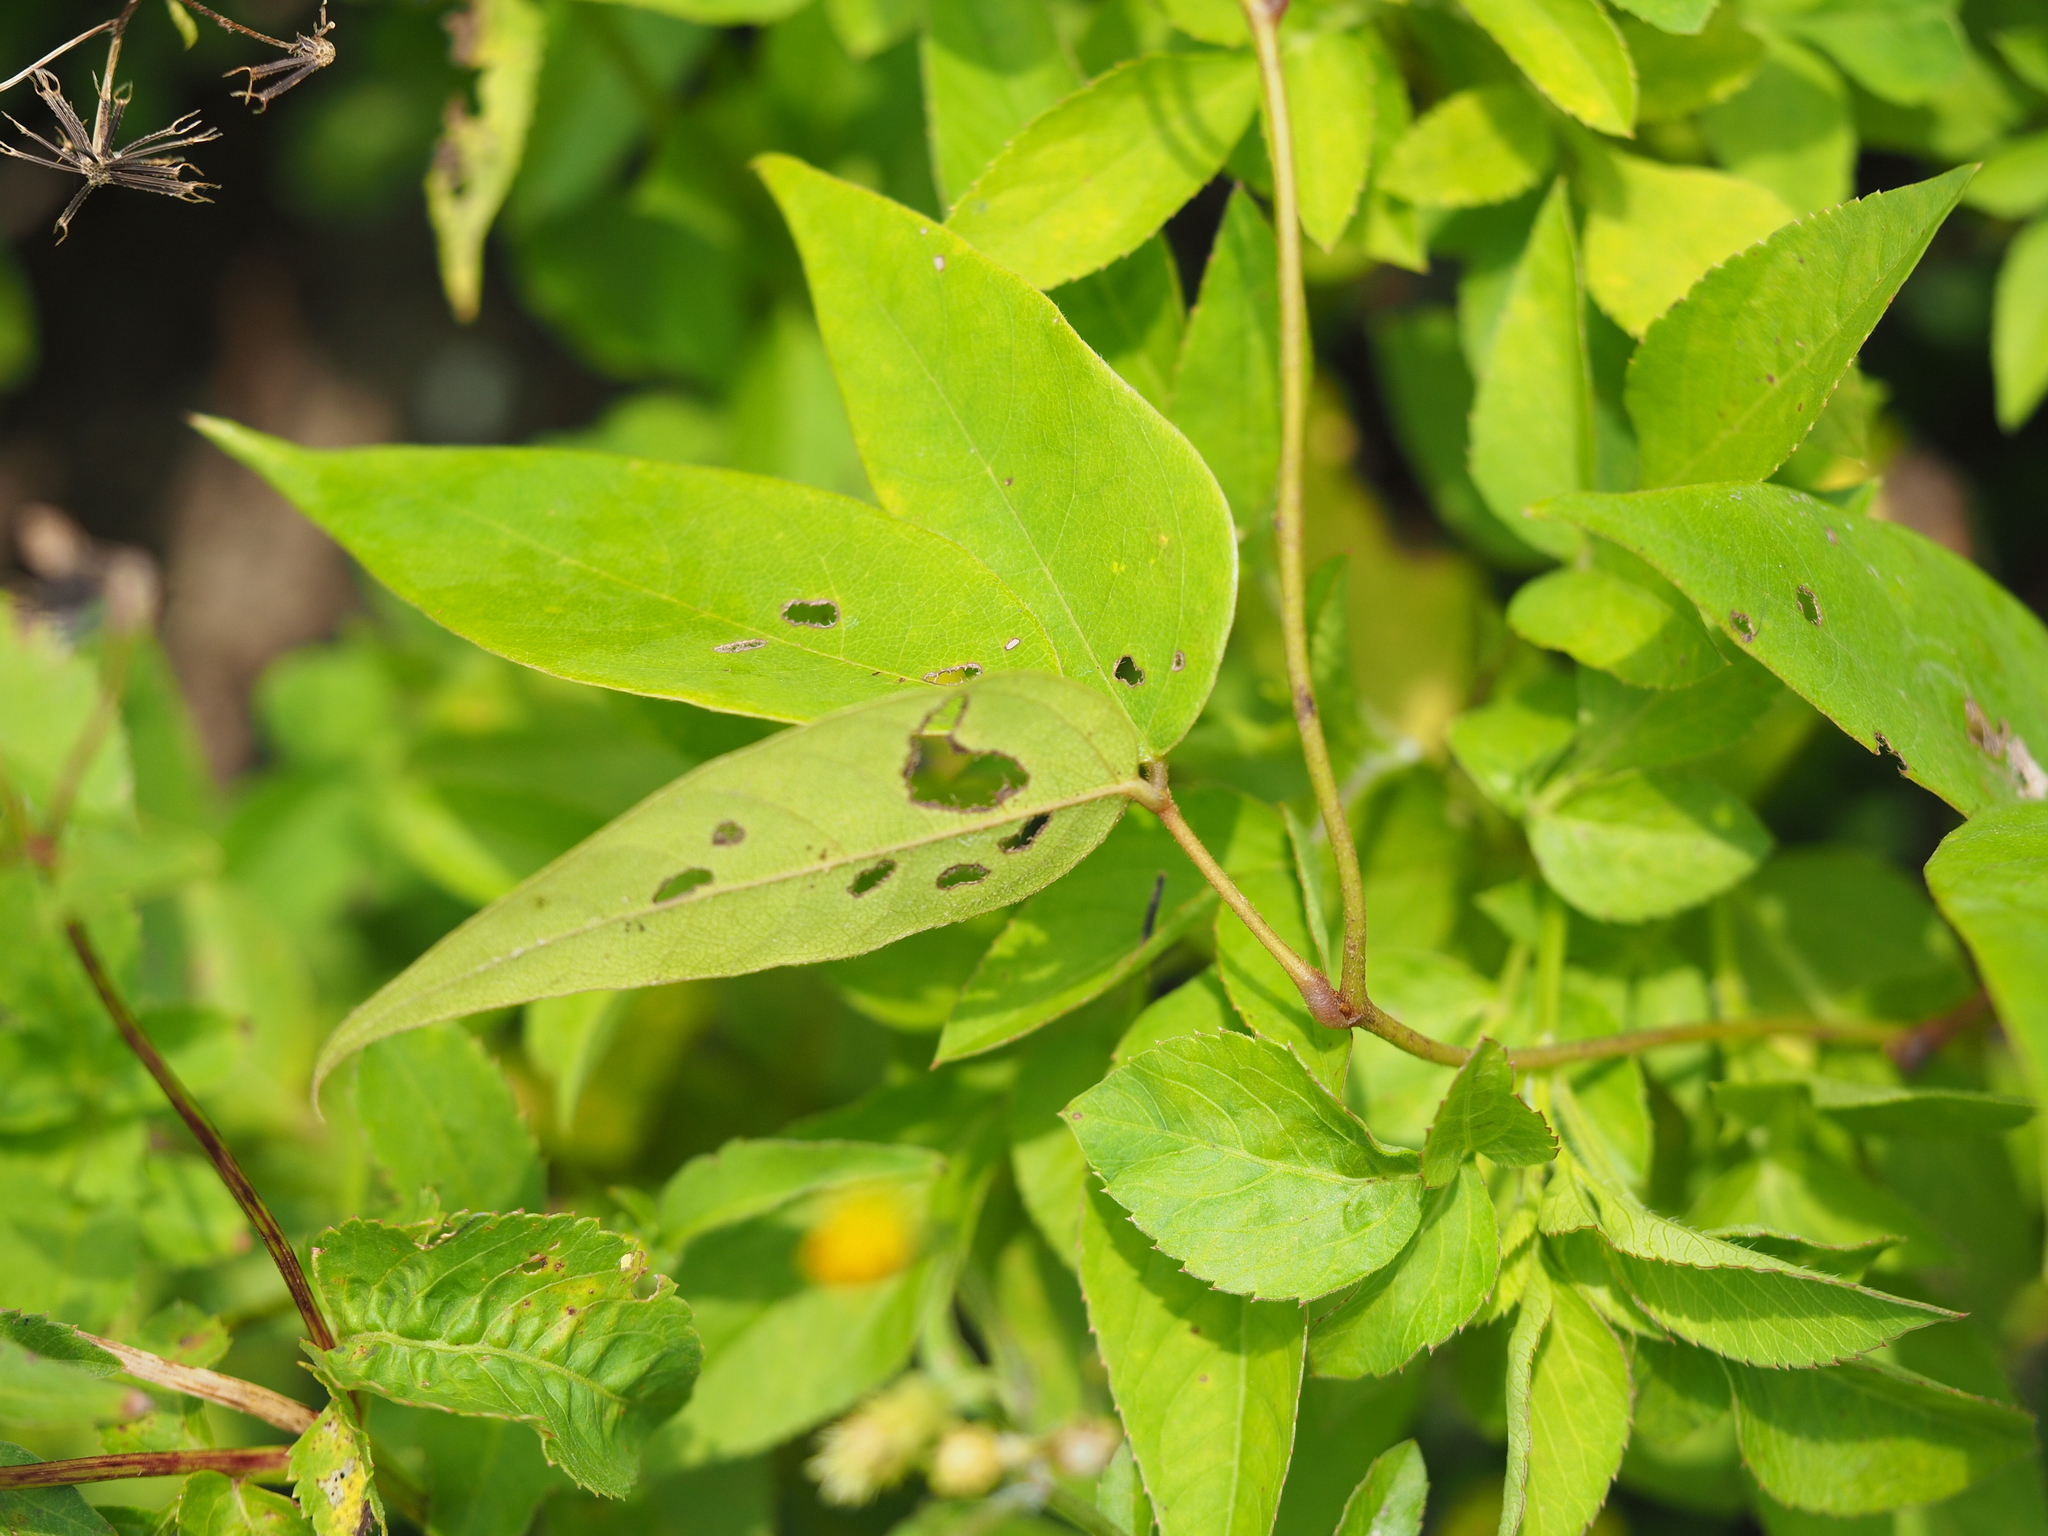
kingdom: Plantae
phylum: Tracheophyta
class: Magnoliopsida
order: Fabales
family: Fabaceae
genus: Mucuna
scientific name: Mucuna macrocarpa
